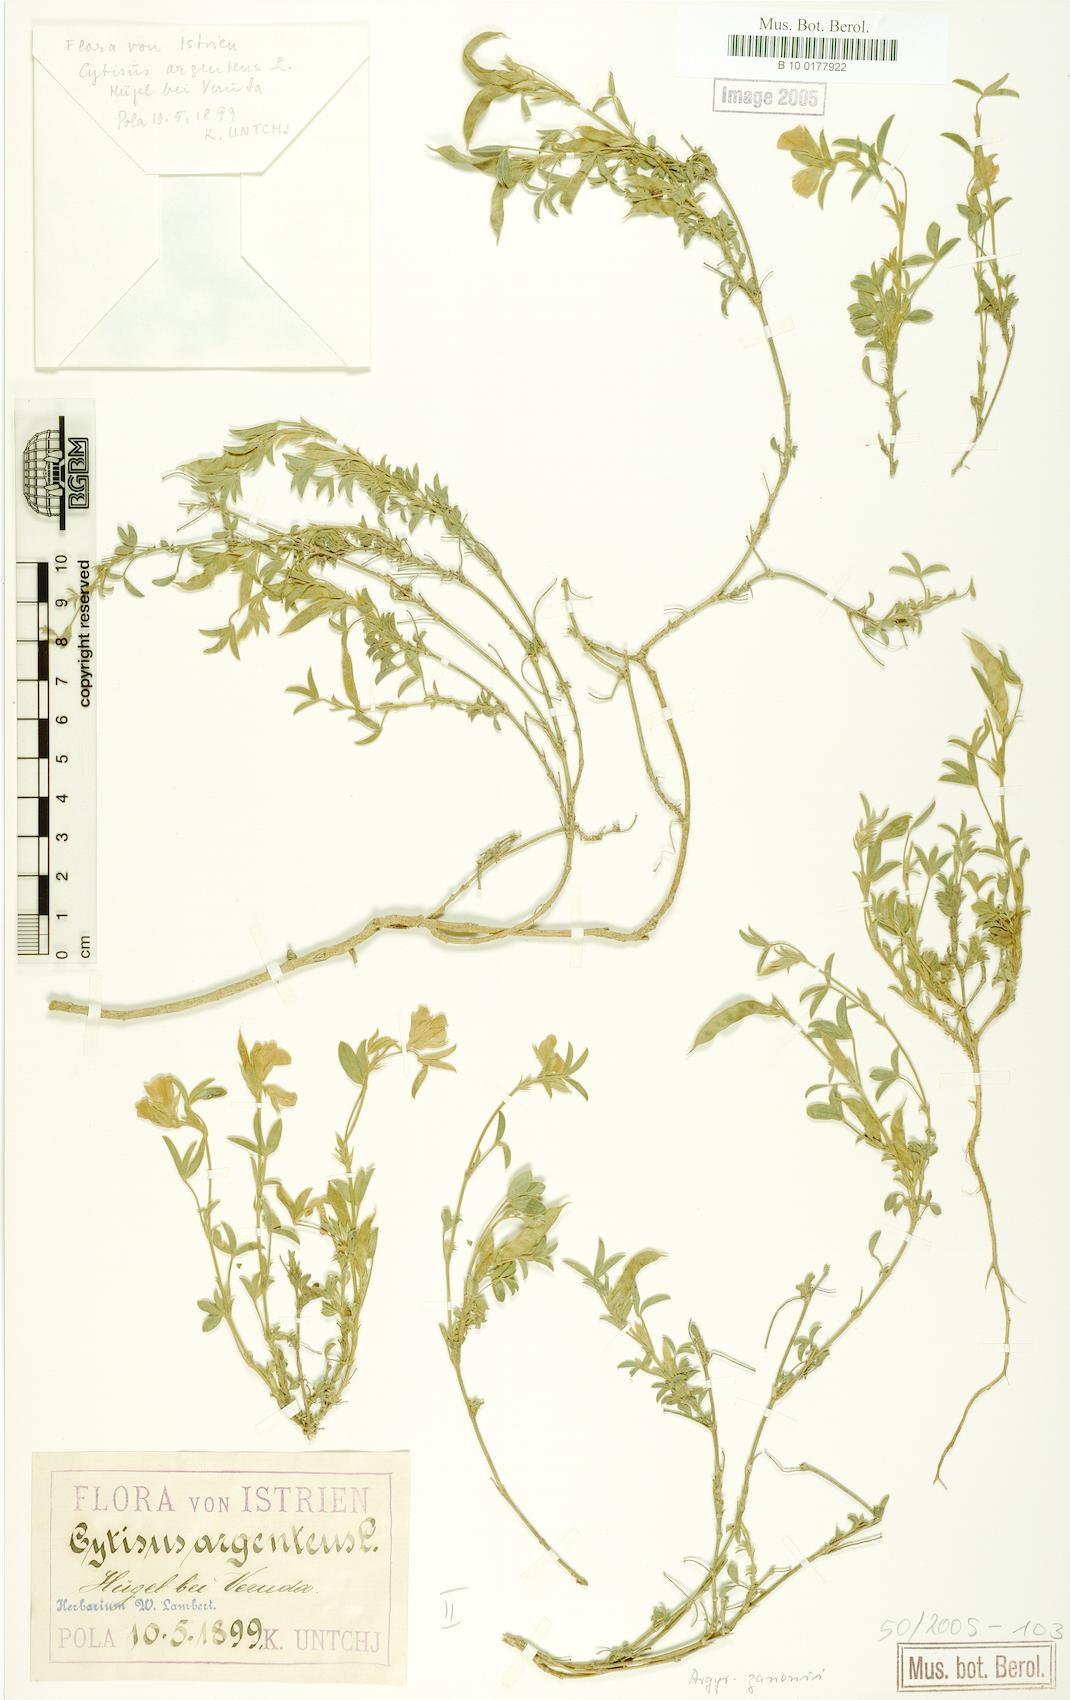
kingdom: Plantae
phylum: Tracheophyta
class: Magnoliopsida
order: Fabales
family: Fabaceae
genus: Argyrolobium
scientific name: Argyrolobium zanonii
